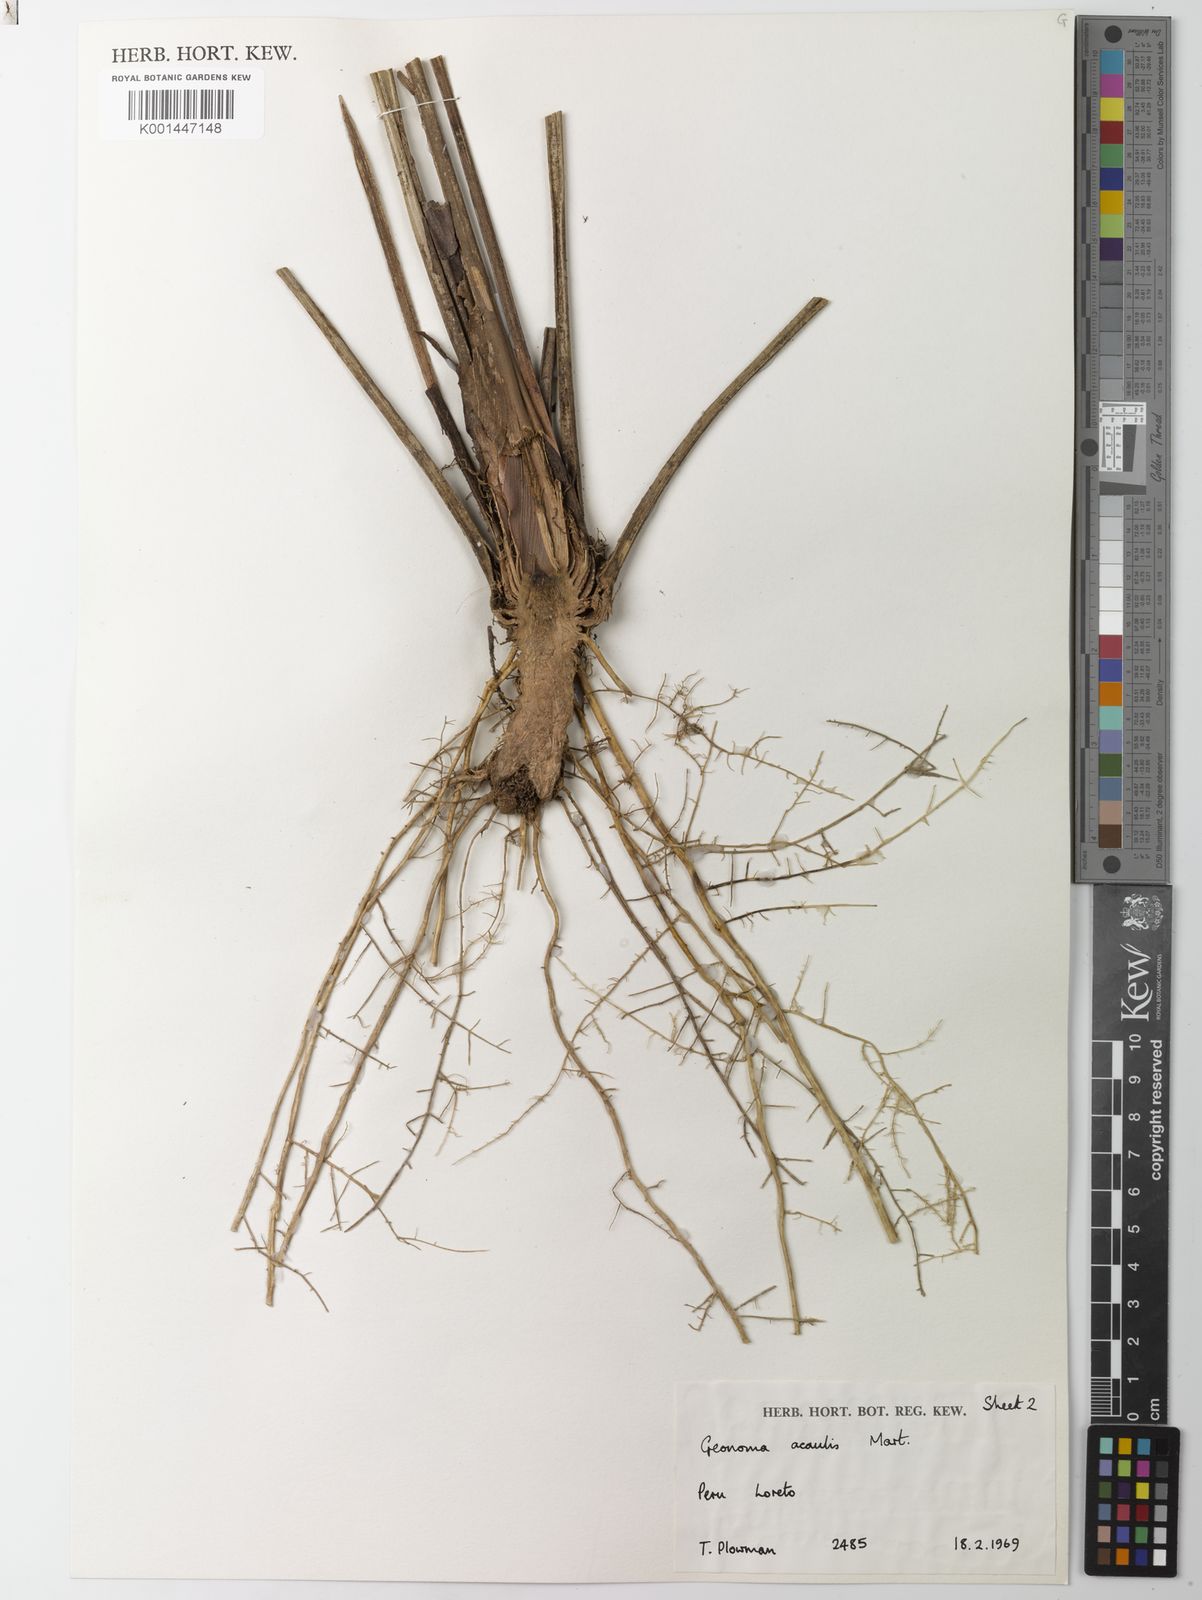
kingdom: Plantae
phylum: Tracheophyta
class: Liliopsida
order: Arecales
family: Arecaceae
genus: Geonoma
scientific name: Geonoma macrostachys
